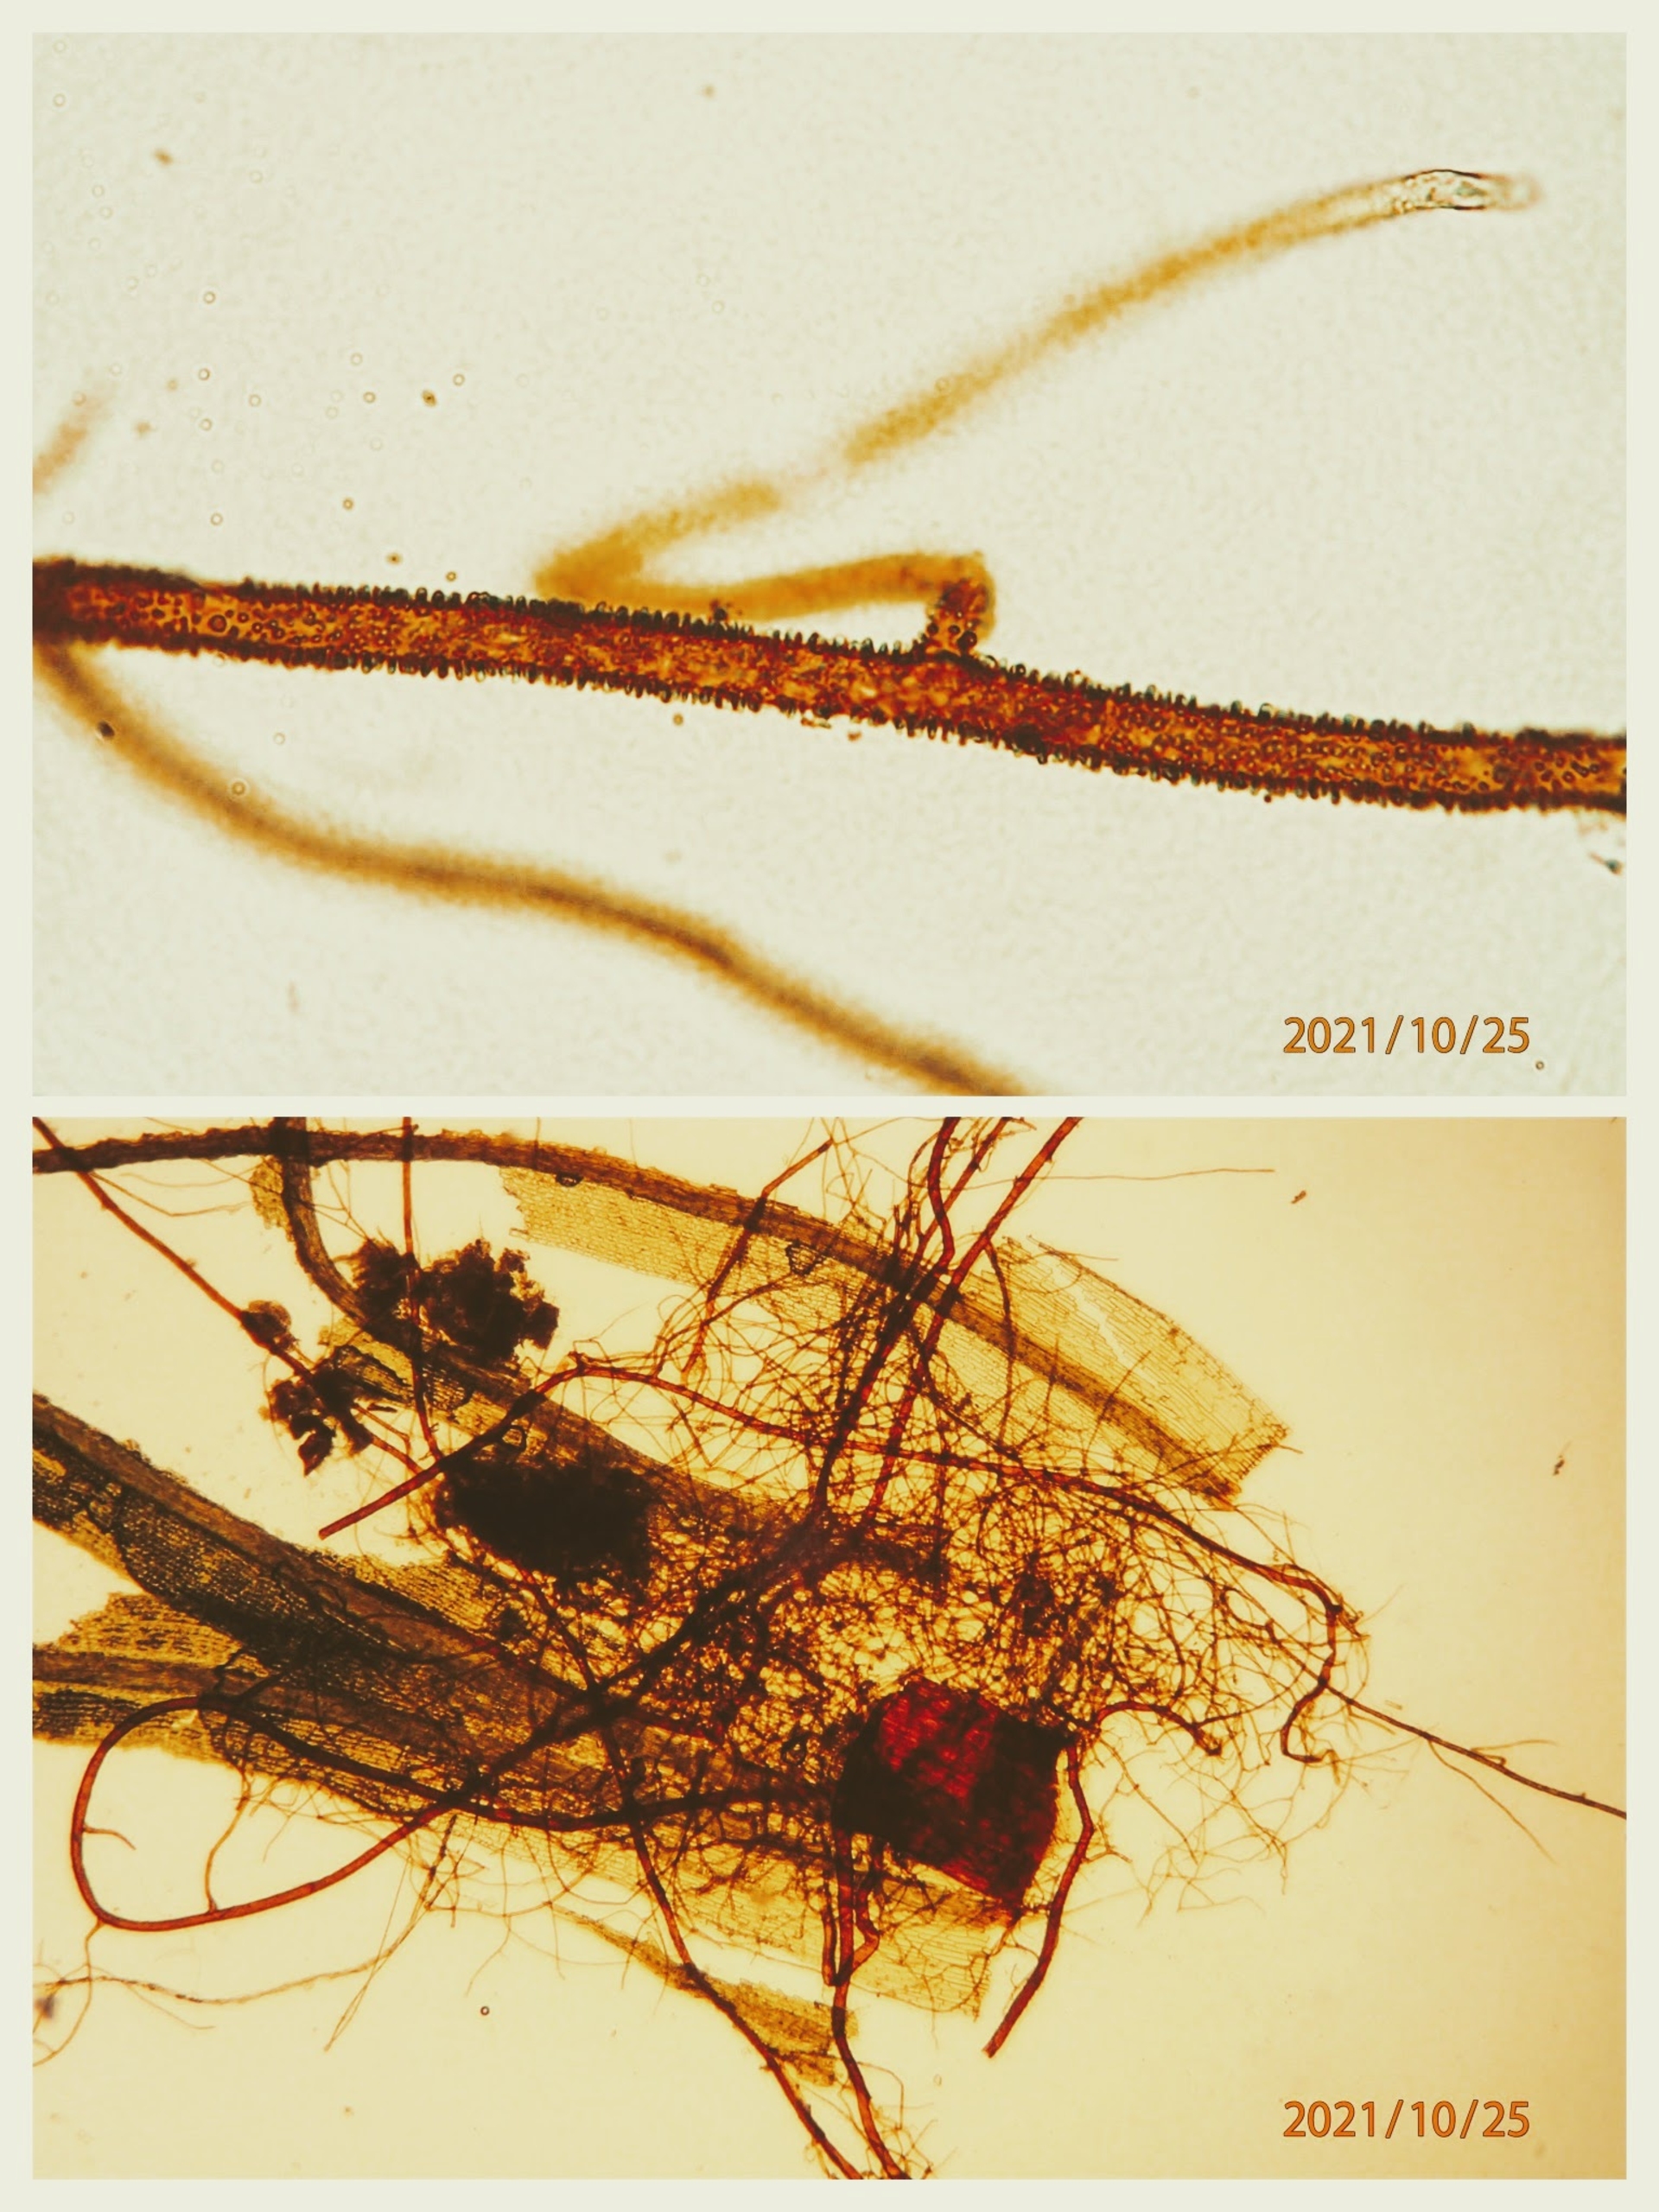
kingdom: Plantae
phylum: Bryophyta
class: Bryopsida
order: Bartramiales
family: Bartramiaceae
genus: Bartramia
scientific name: Bartramia pomiformis
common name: Gulgrøn kuglekapsel
